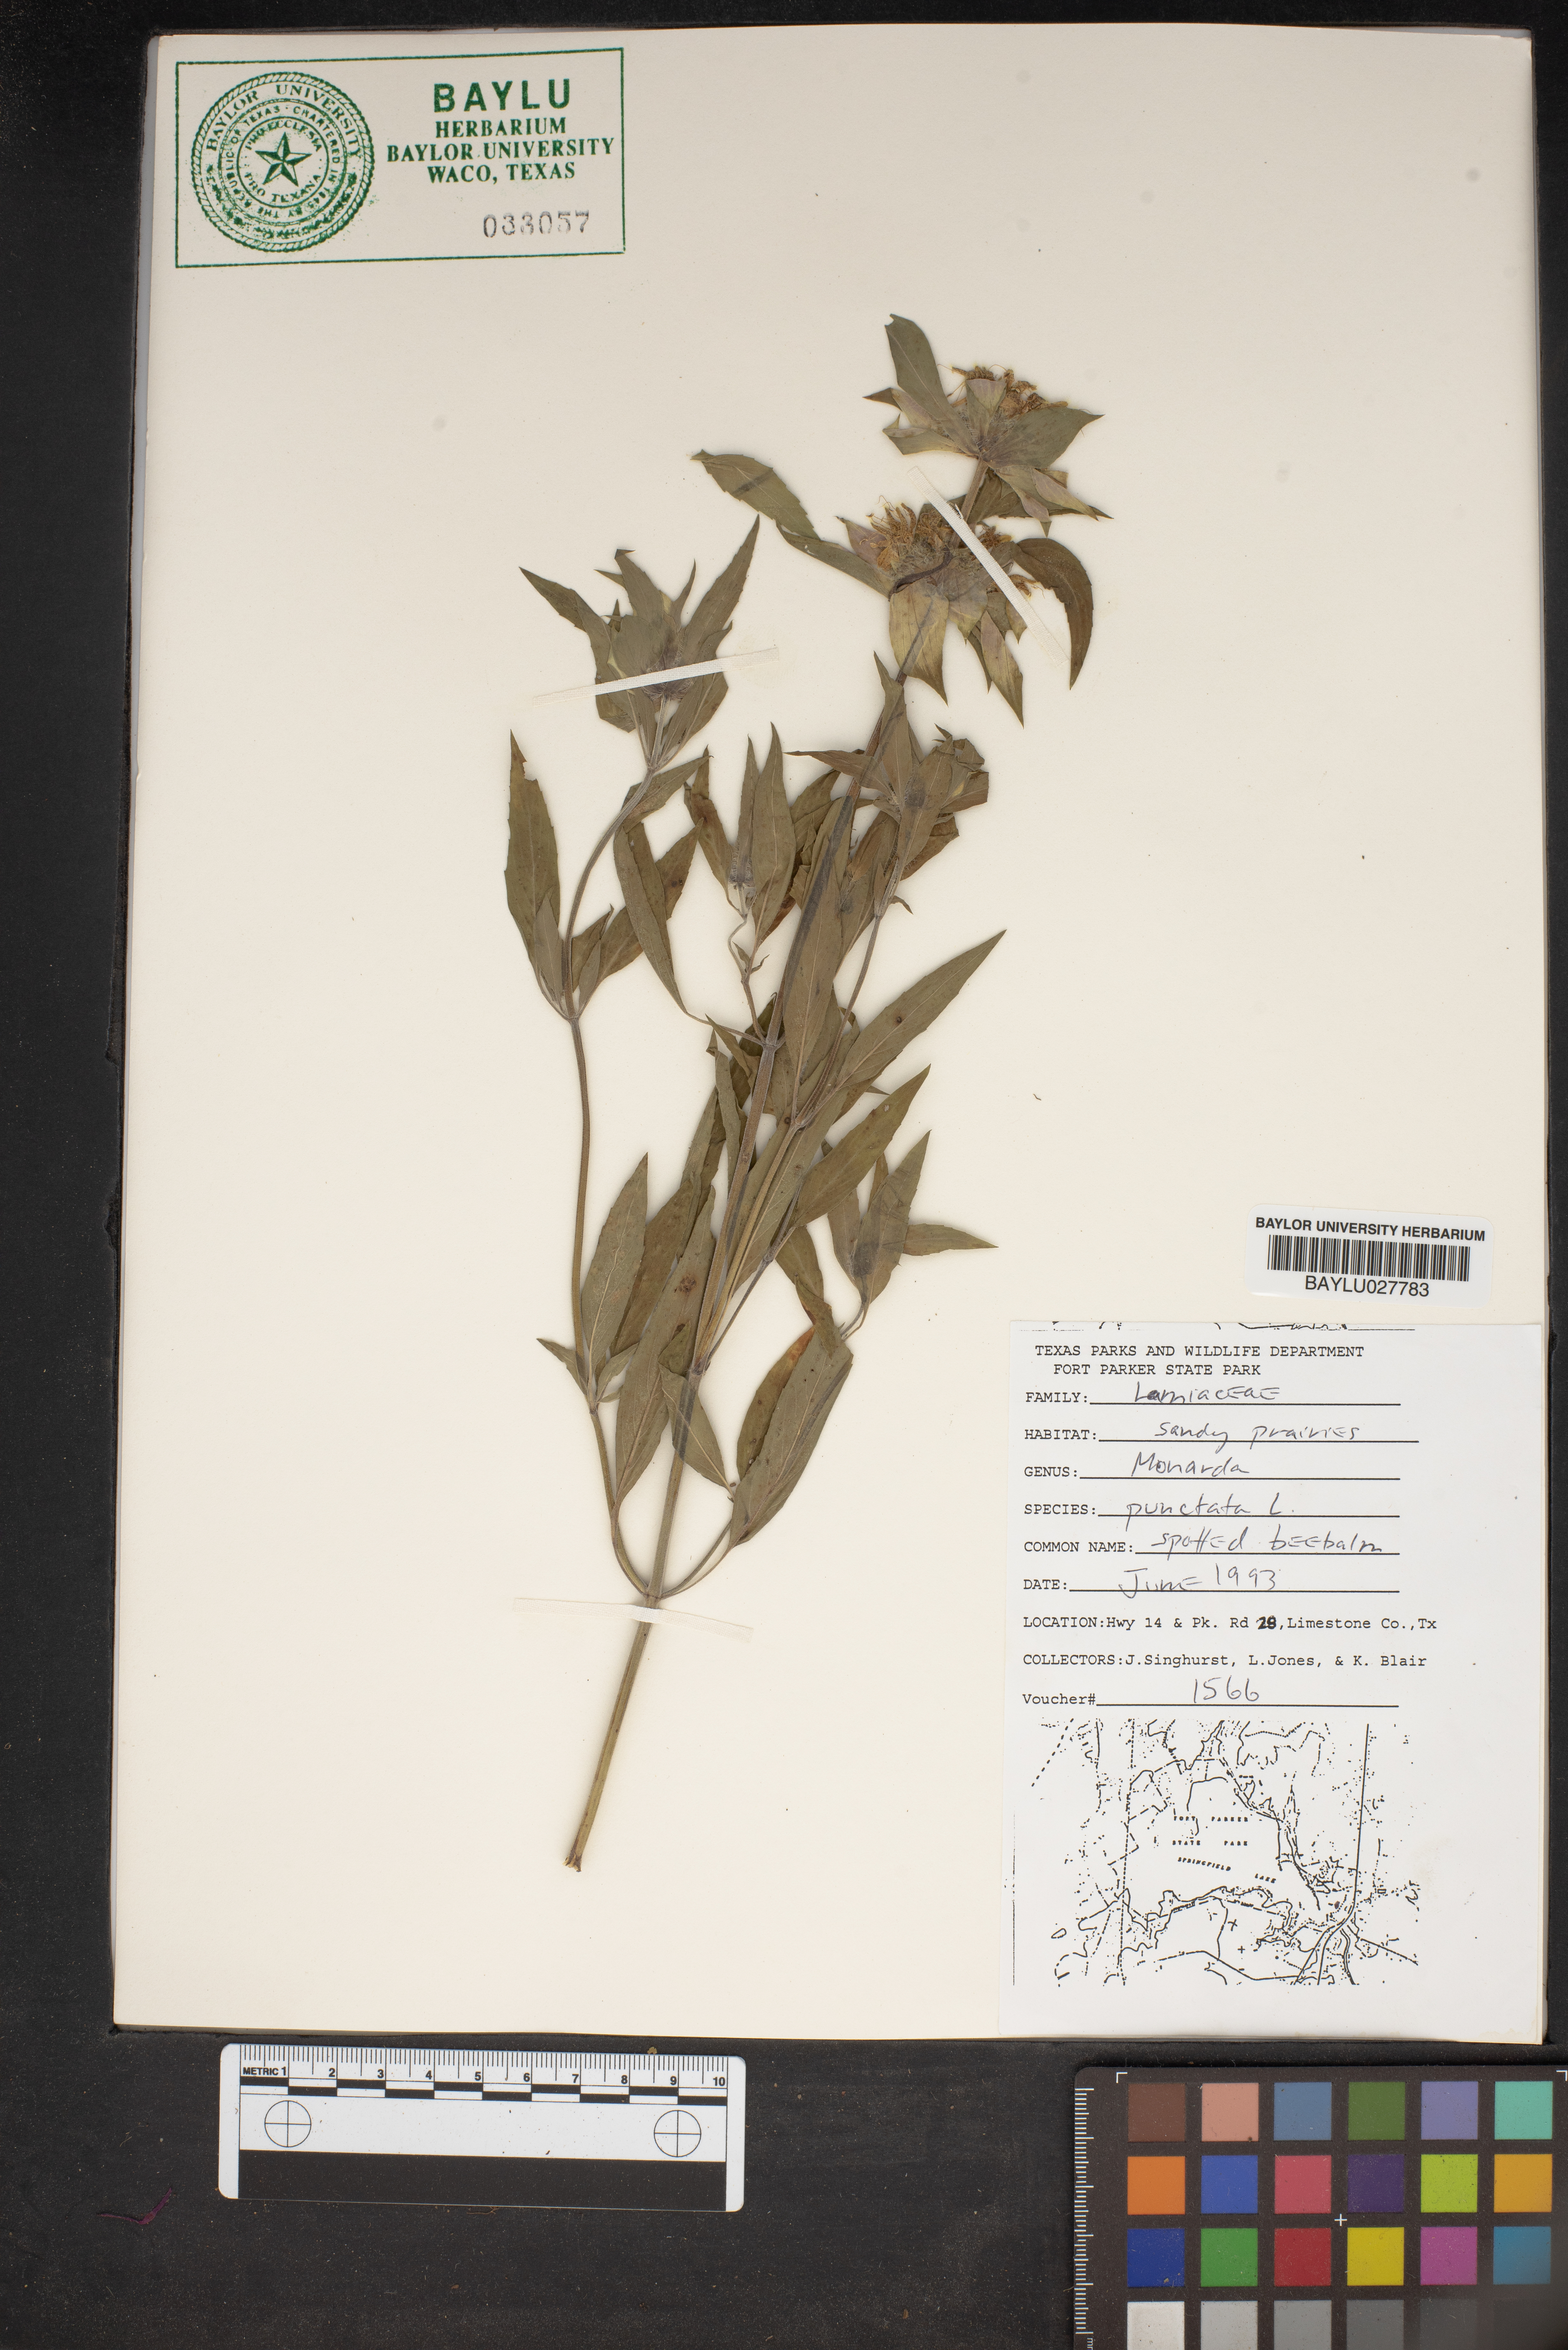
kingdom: Plantae
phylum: Tracheophyta
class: Magnoliopsida
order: Lamiales
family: Lamiaceae
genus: Monarda
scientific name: Monarda punctata
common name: Dotted monarda
